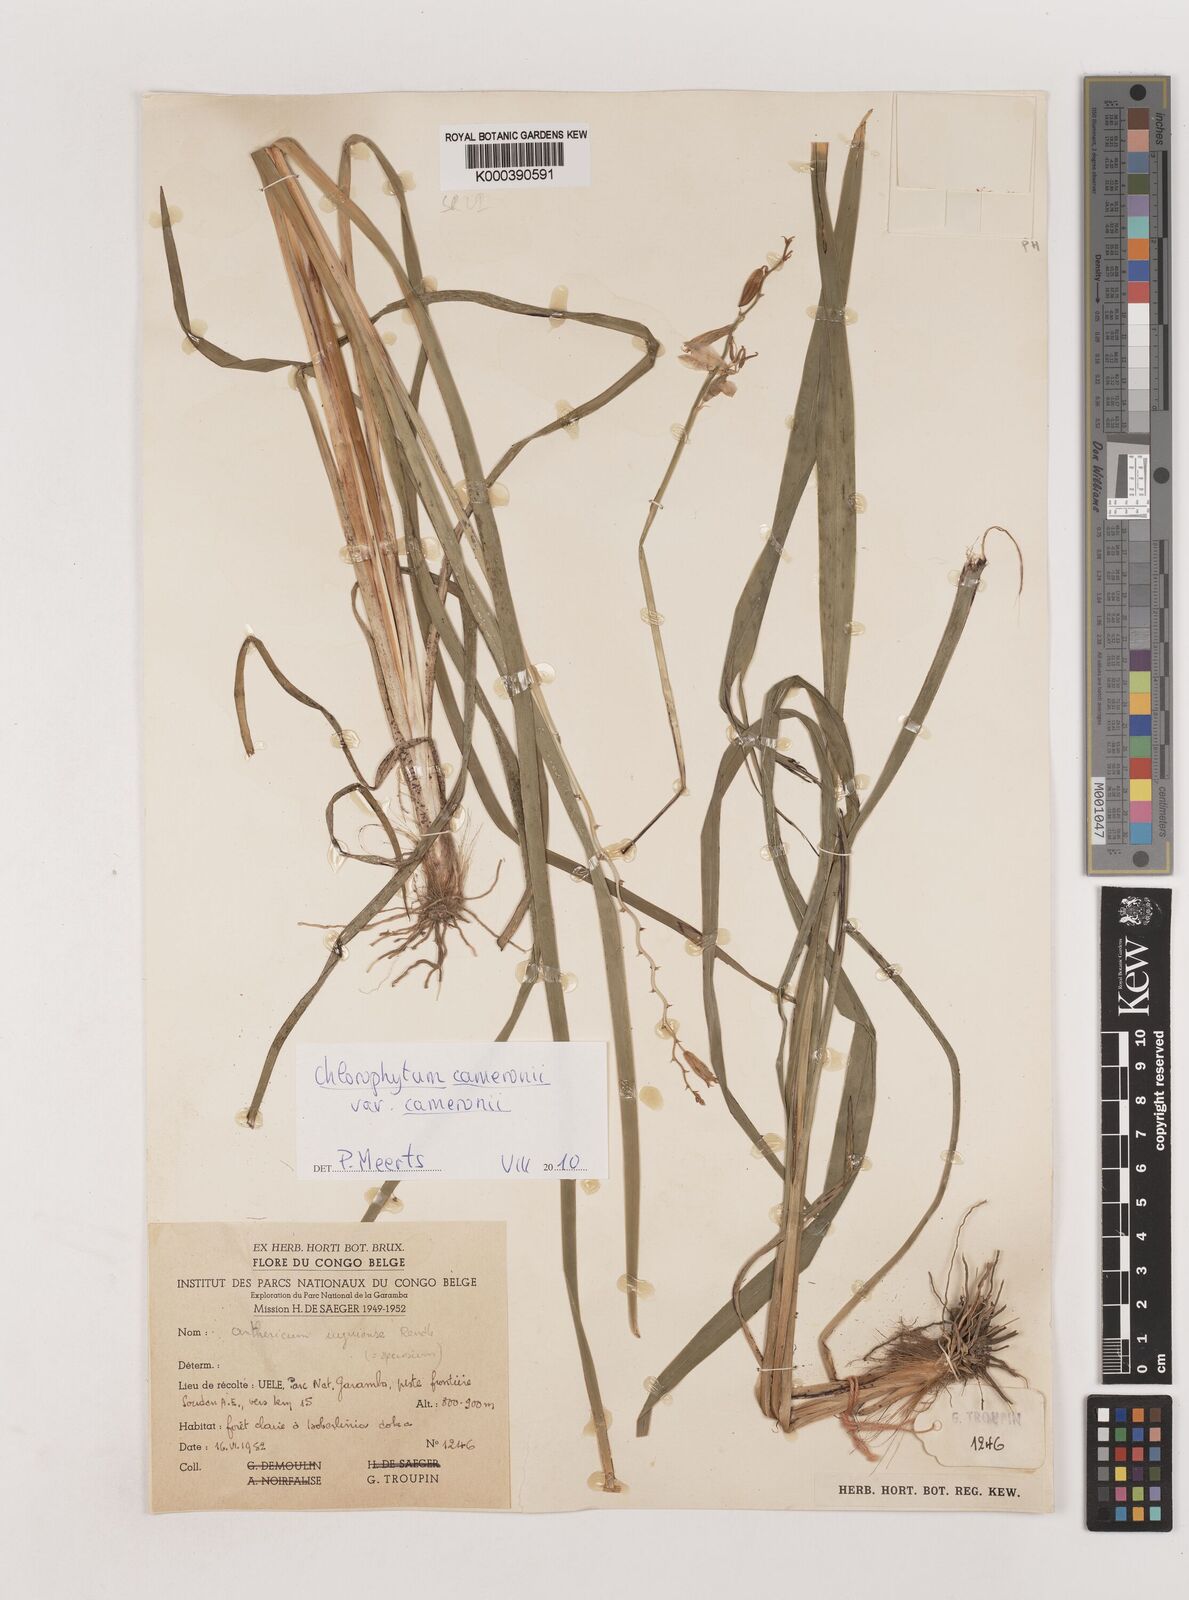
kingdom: Plantae
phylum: Tracheophyta
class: Liliopsida
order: Asparagales
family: Asparagaceae
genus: Chlorophytum
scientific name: Chlorophytum cameronii
